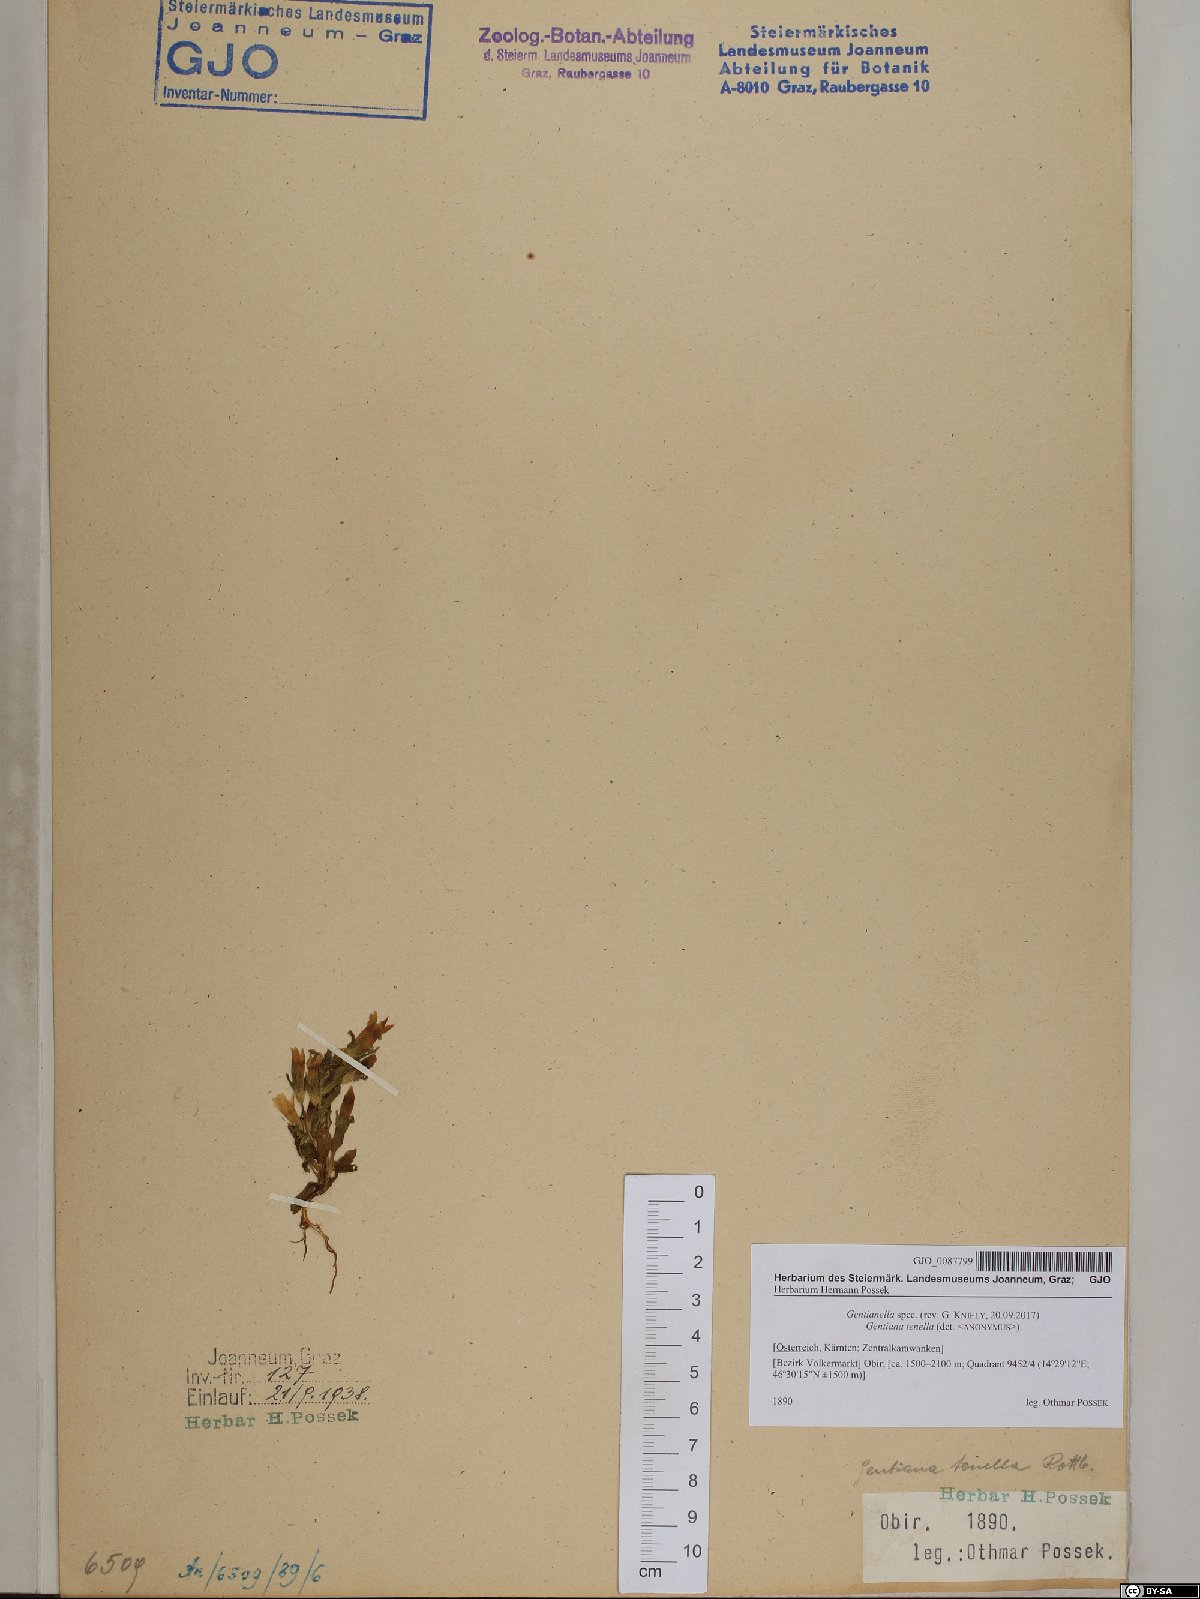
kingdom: Plantae
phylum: Tracheophyta
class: Magnoliopsida
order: Gentianales
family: Gentianaceae
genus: Gentianella
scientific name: Gentianella
